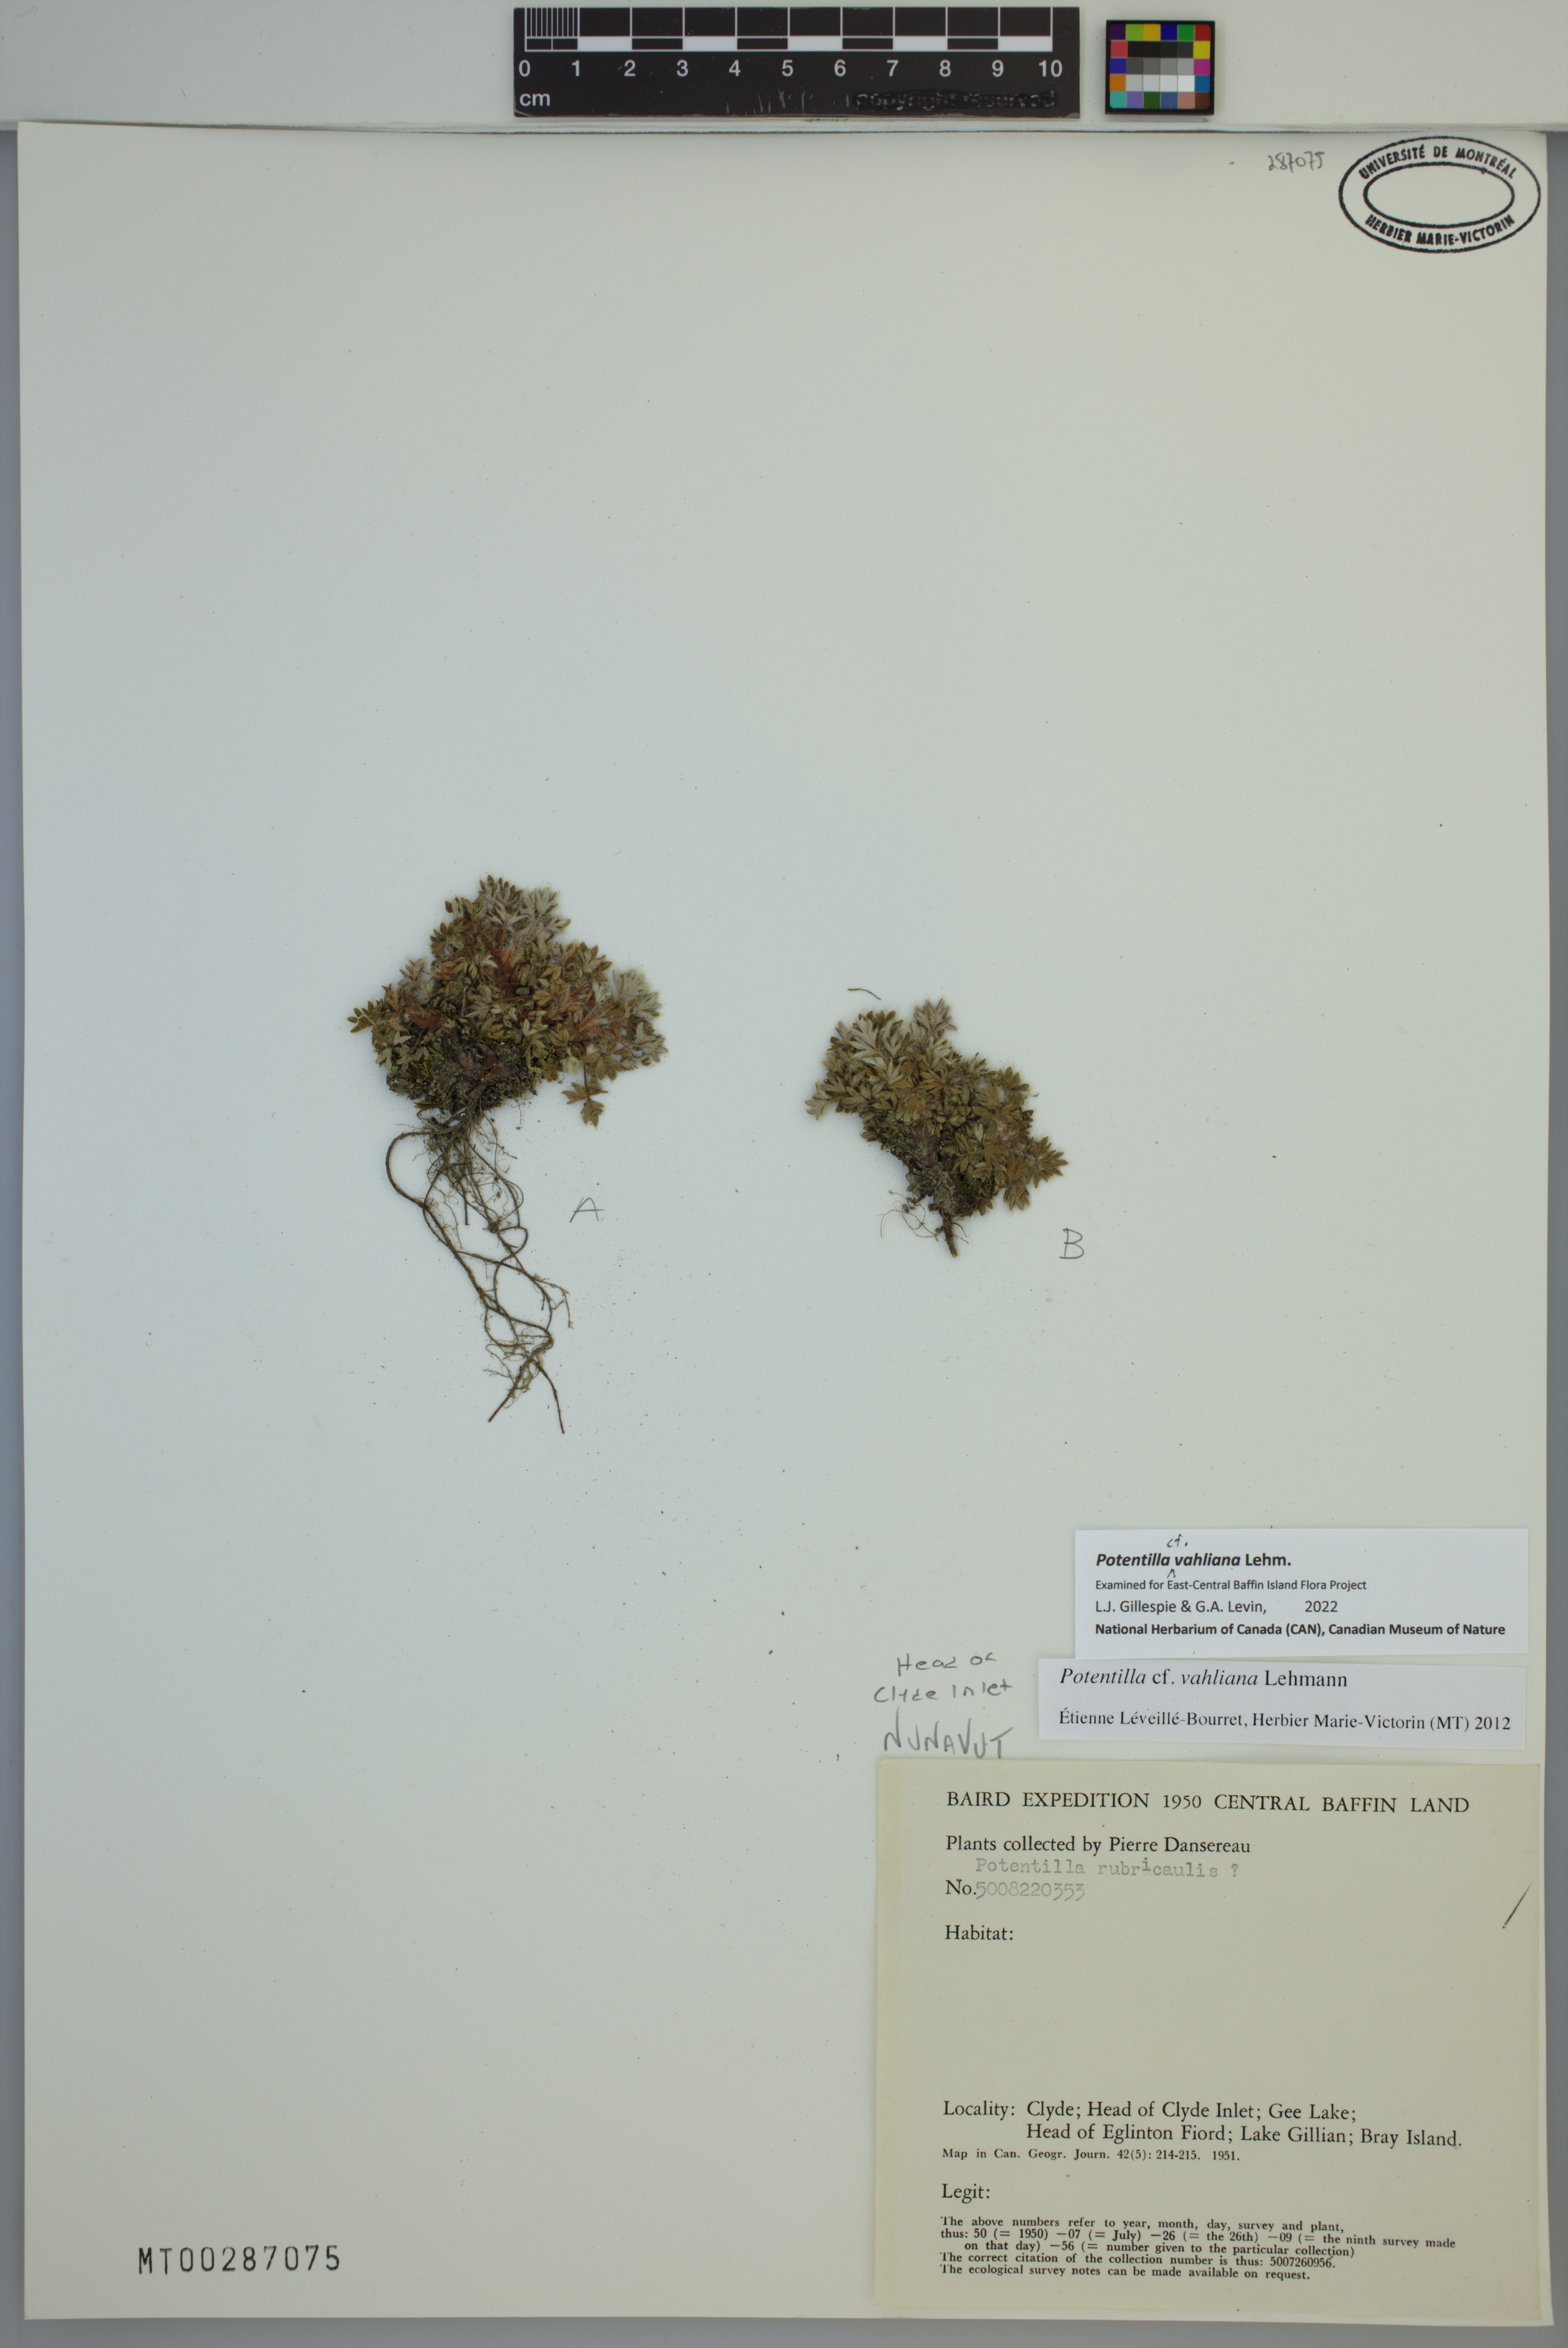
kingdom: Plantae
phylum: Tracheophyta
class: Magnoliopsida
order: Rosales
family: Rosaceae
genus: Potentilla
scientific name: Potentilla vahliana
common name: Vahl's cinquefoil
